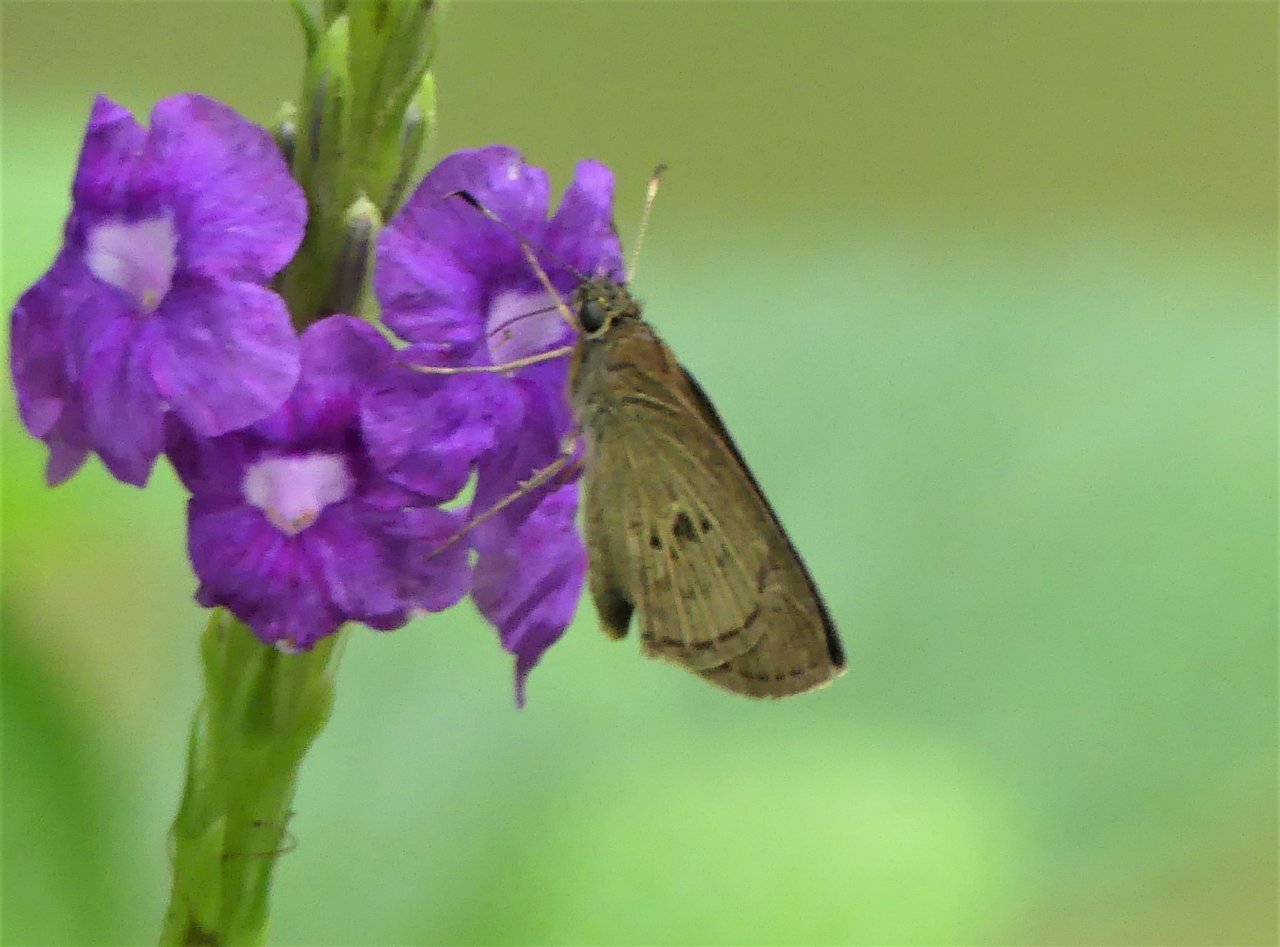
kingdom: Animalia
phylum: Arthropoda
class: Insecta
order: Lepidoptera
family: Hesperiidae
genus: Cymaenes
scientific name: Cymaenes tripunctata
